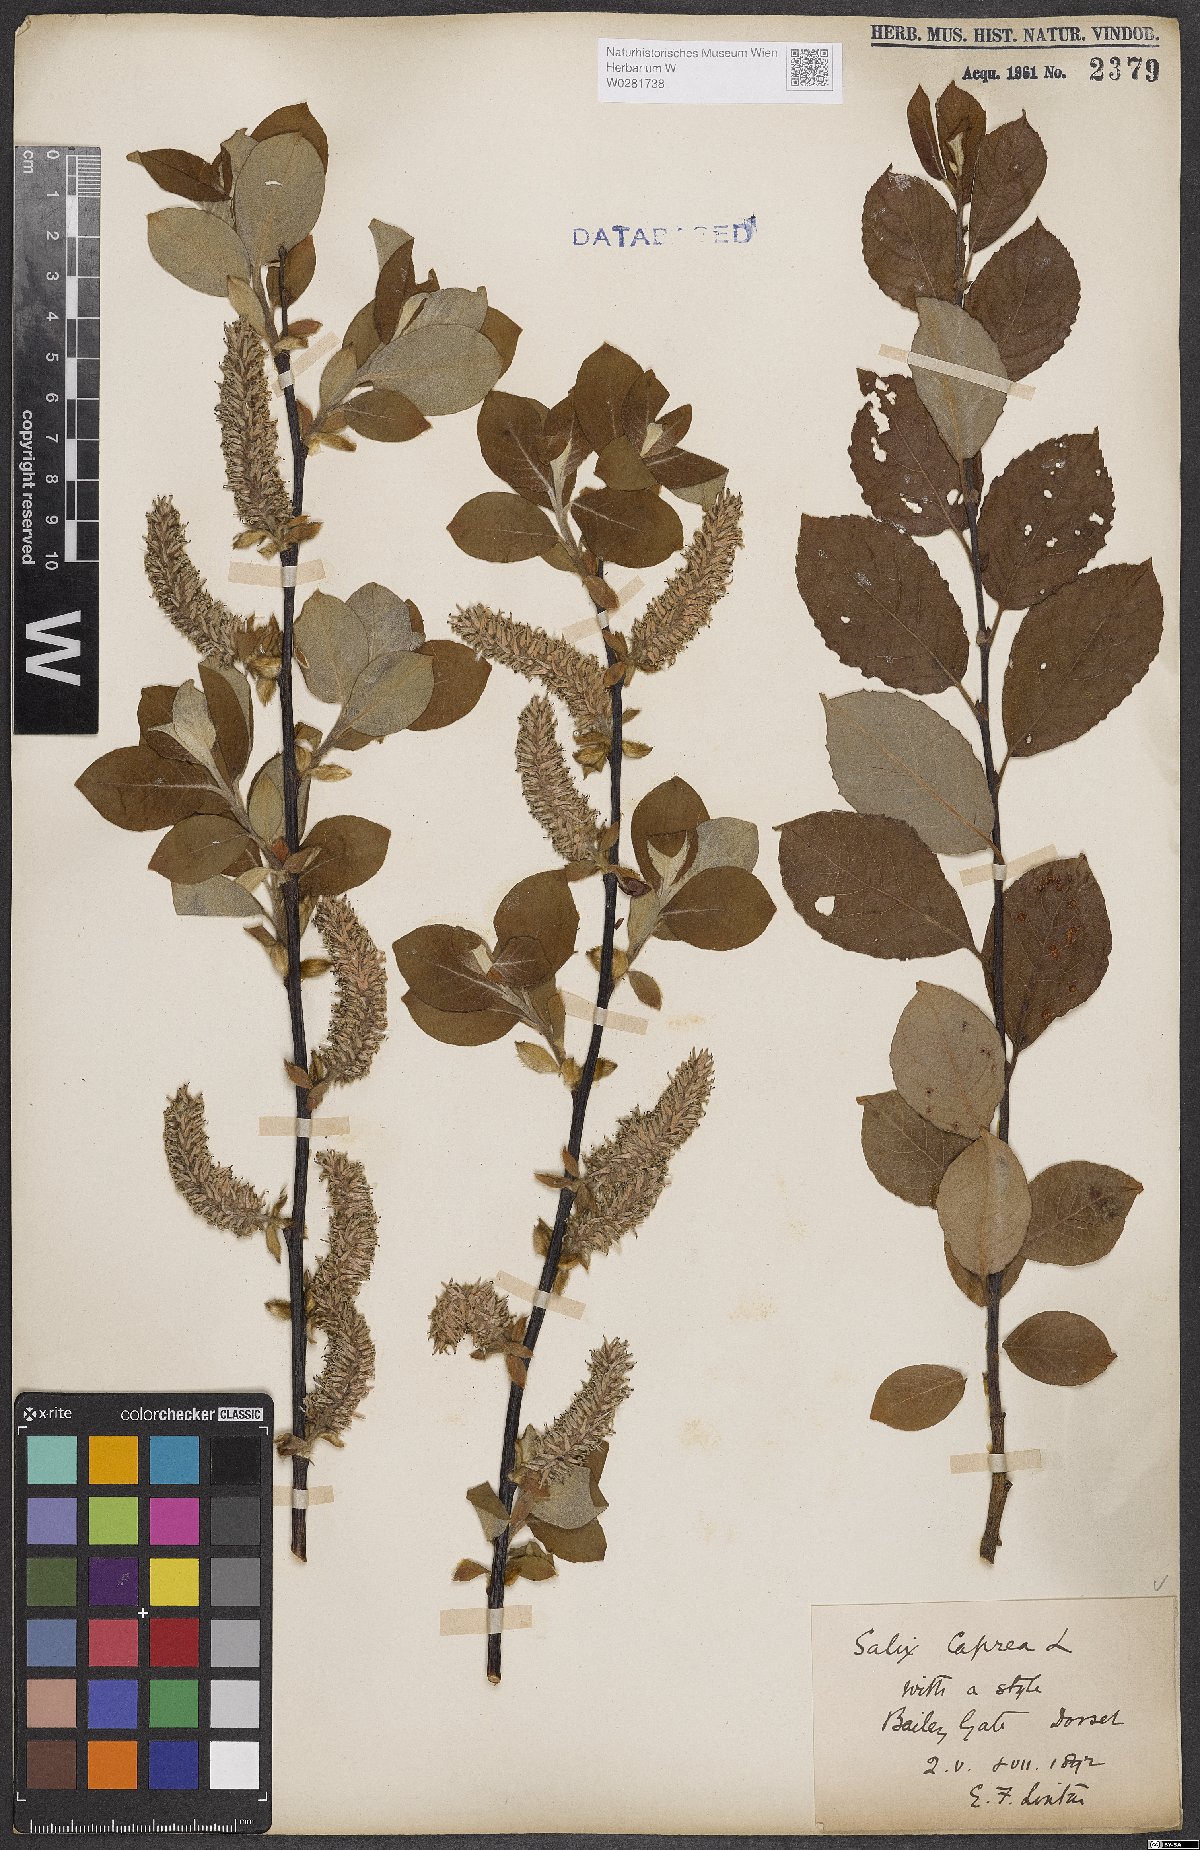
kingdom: Plantae
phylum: Tracheophyta
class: Magnoliopsida
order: Malpighiales
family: Salicaceae
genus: Salix
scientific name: Salix caprea
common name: Goat willow
